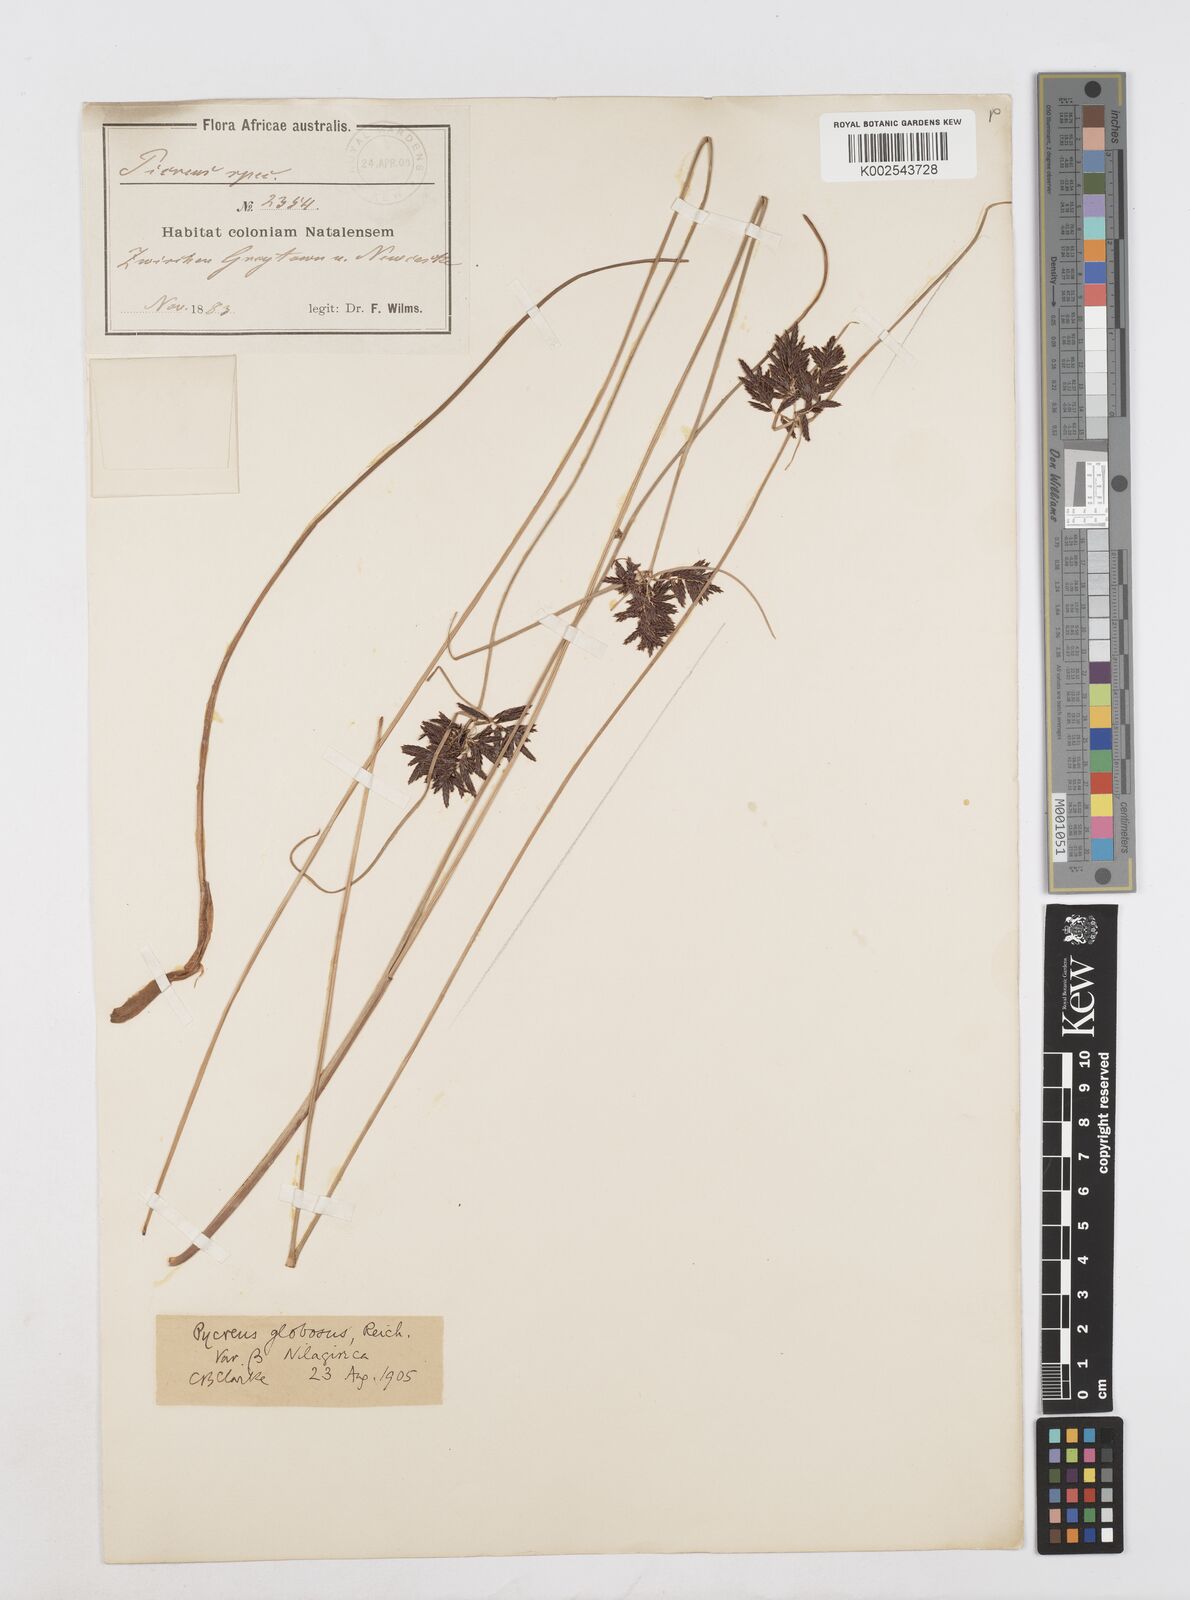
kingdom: Plantae
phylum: Tracheophyta
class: Liliopsida
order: Poales
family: Cyperaceae
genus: Cyperus
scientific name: Cyperus flavidus
